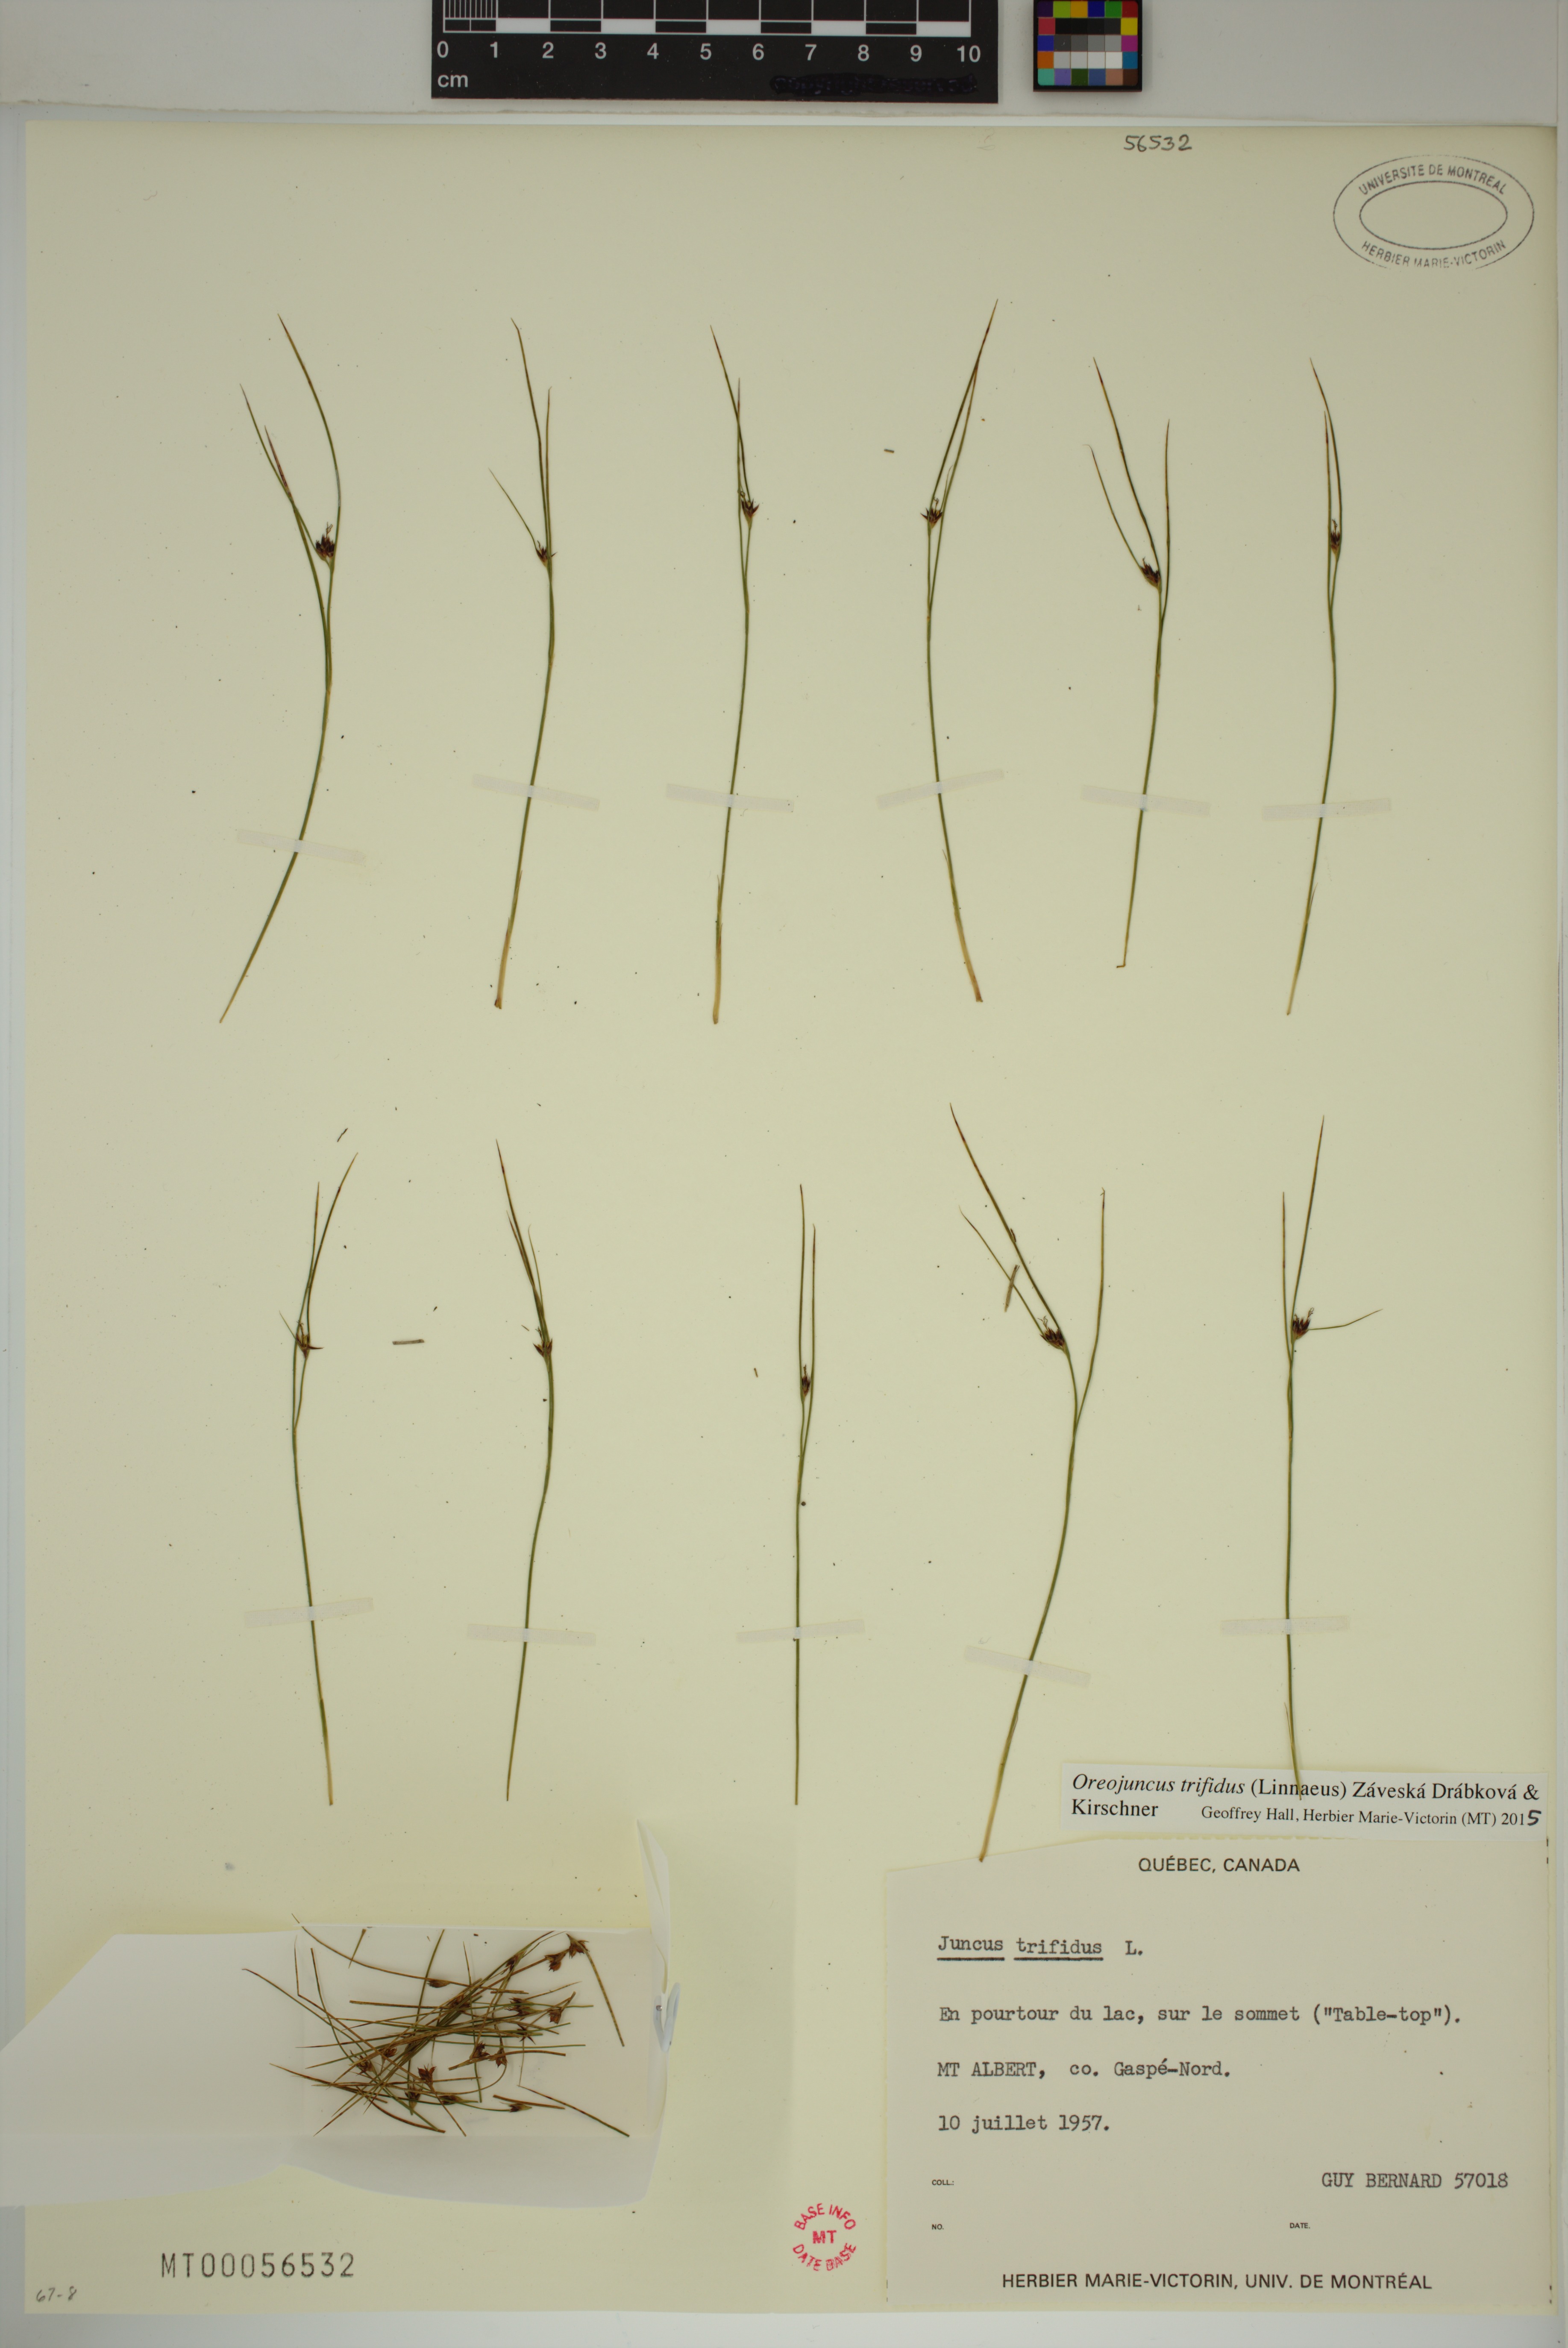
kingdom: Plantae
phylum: Tracheophyta
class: Liliopsida
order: Poales
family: Juncaceae
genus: Oreojuncus
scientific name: Oreojuncus trifidus
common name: Highland rush
